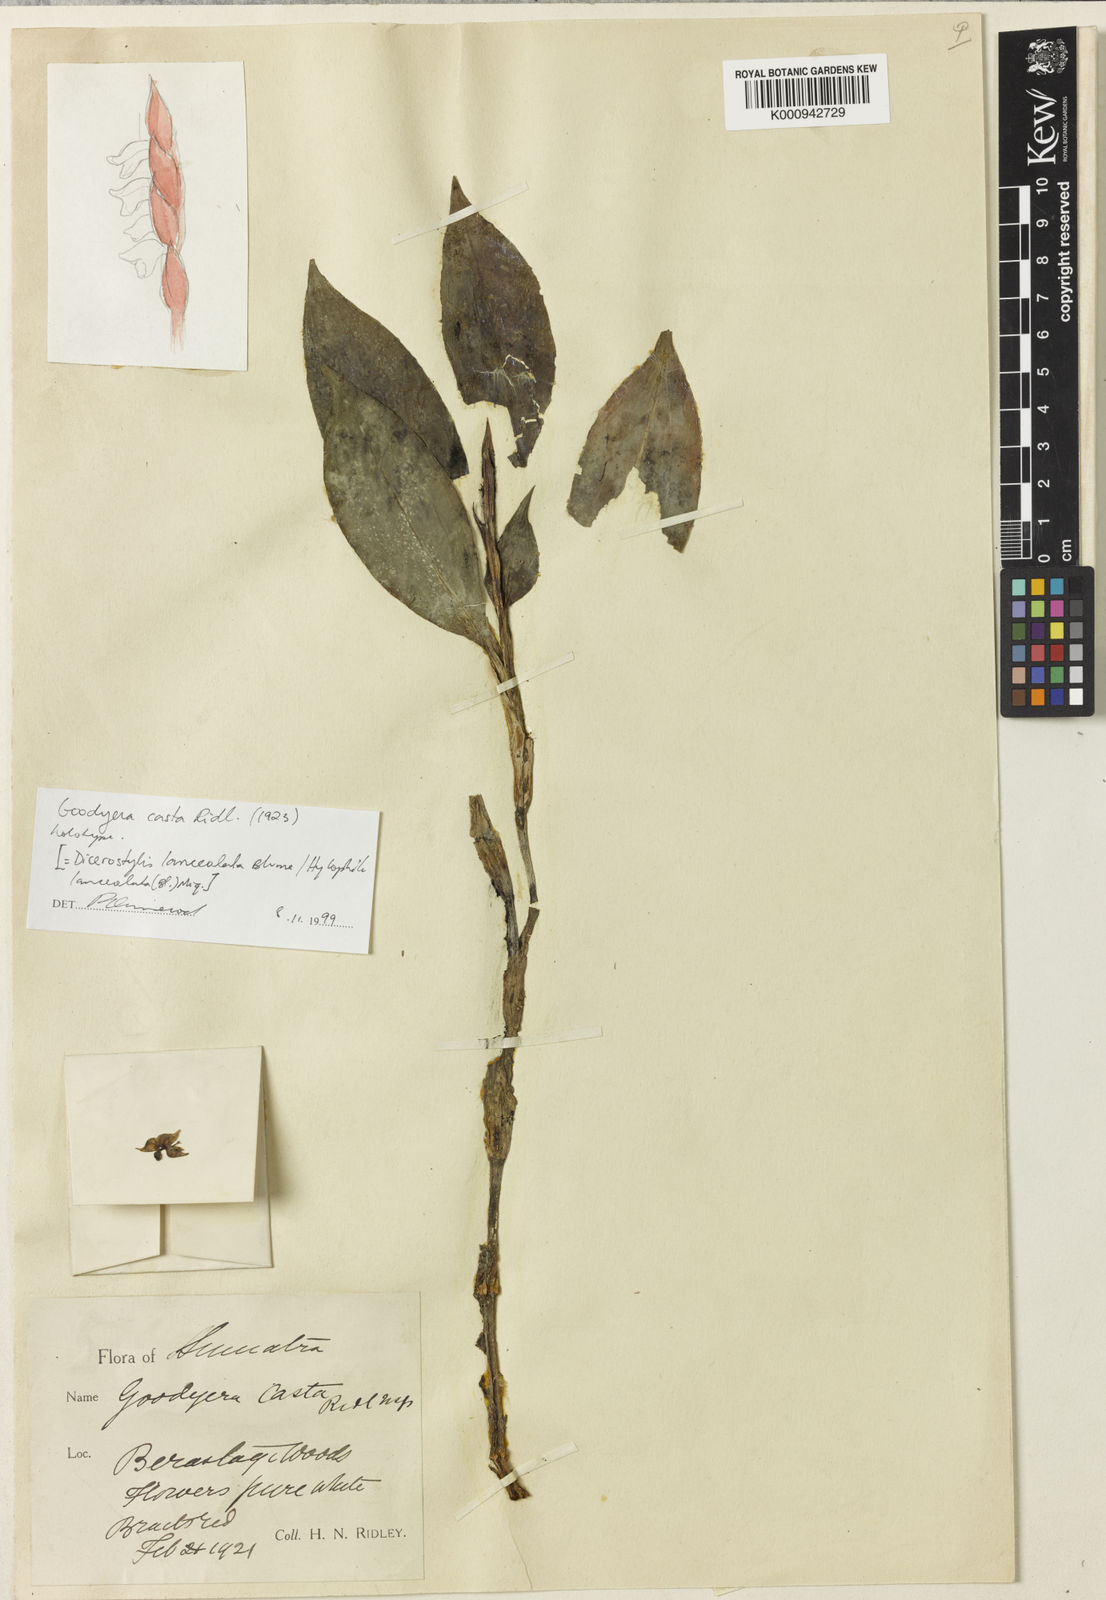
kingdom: Plantae
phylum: Tracheophyta
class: Liliopsida
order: Asparagales
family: Orchidaceae
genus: Hylophila
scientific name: Hylophila lanceolata
